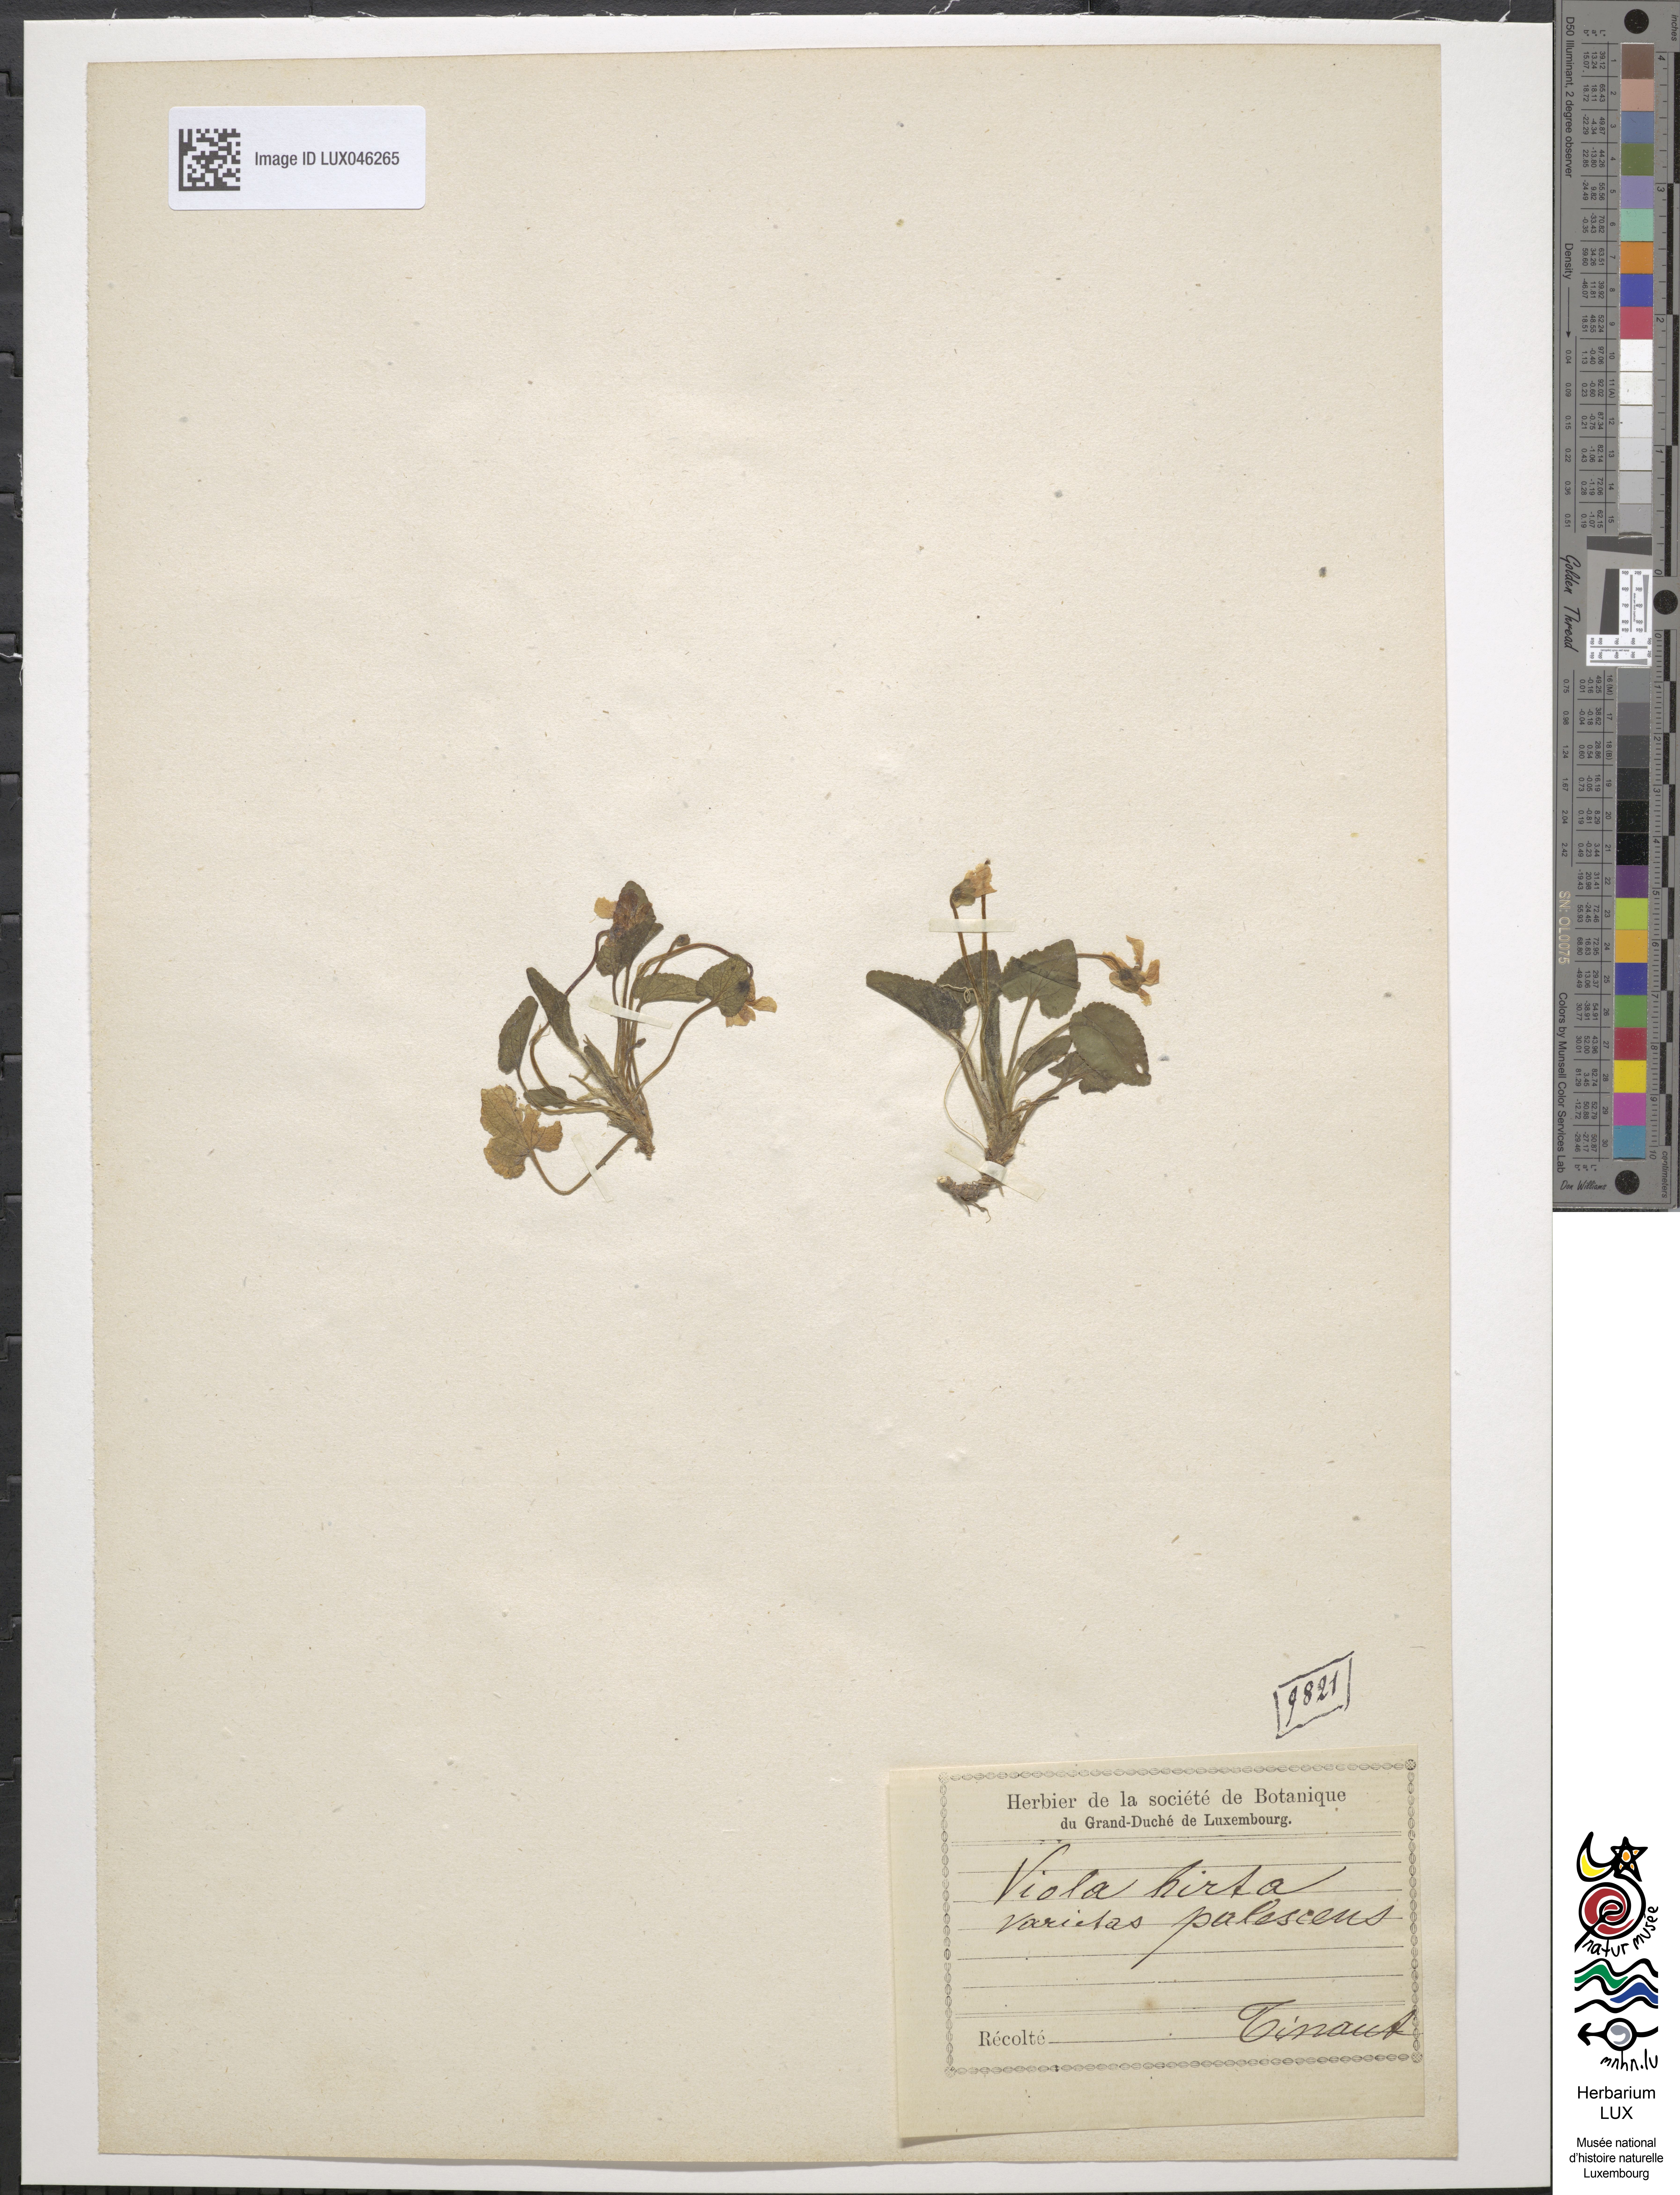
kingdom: Plantae
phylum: Tracheophyta
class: Magnoliopsida
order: Malpighiales
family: Violaceae
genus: Viola
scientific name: Viola hirta
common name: Hairy violet
